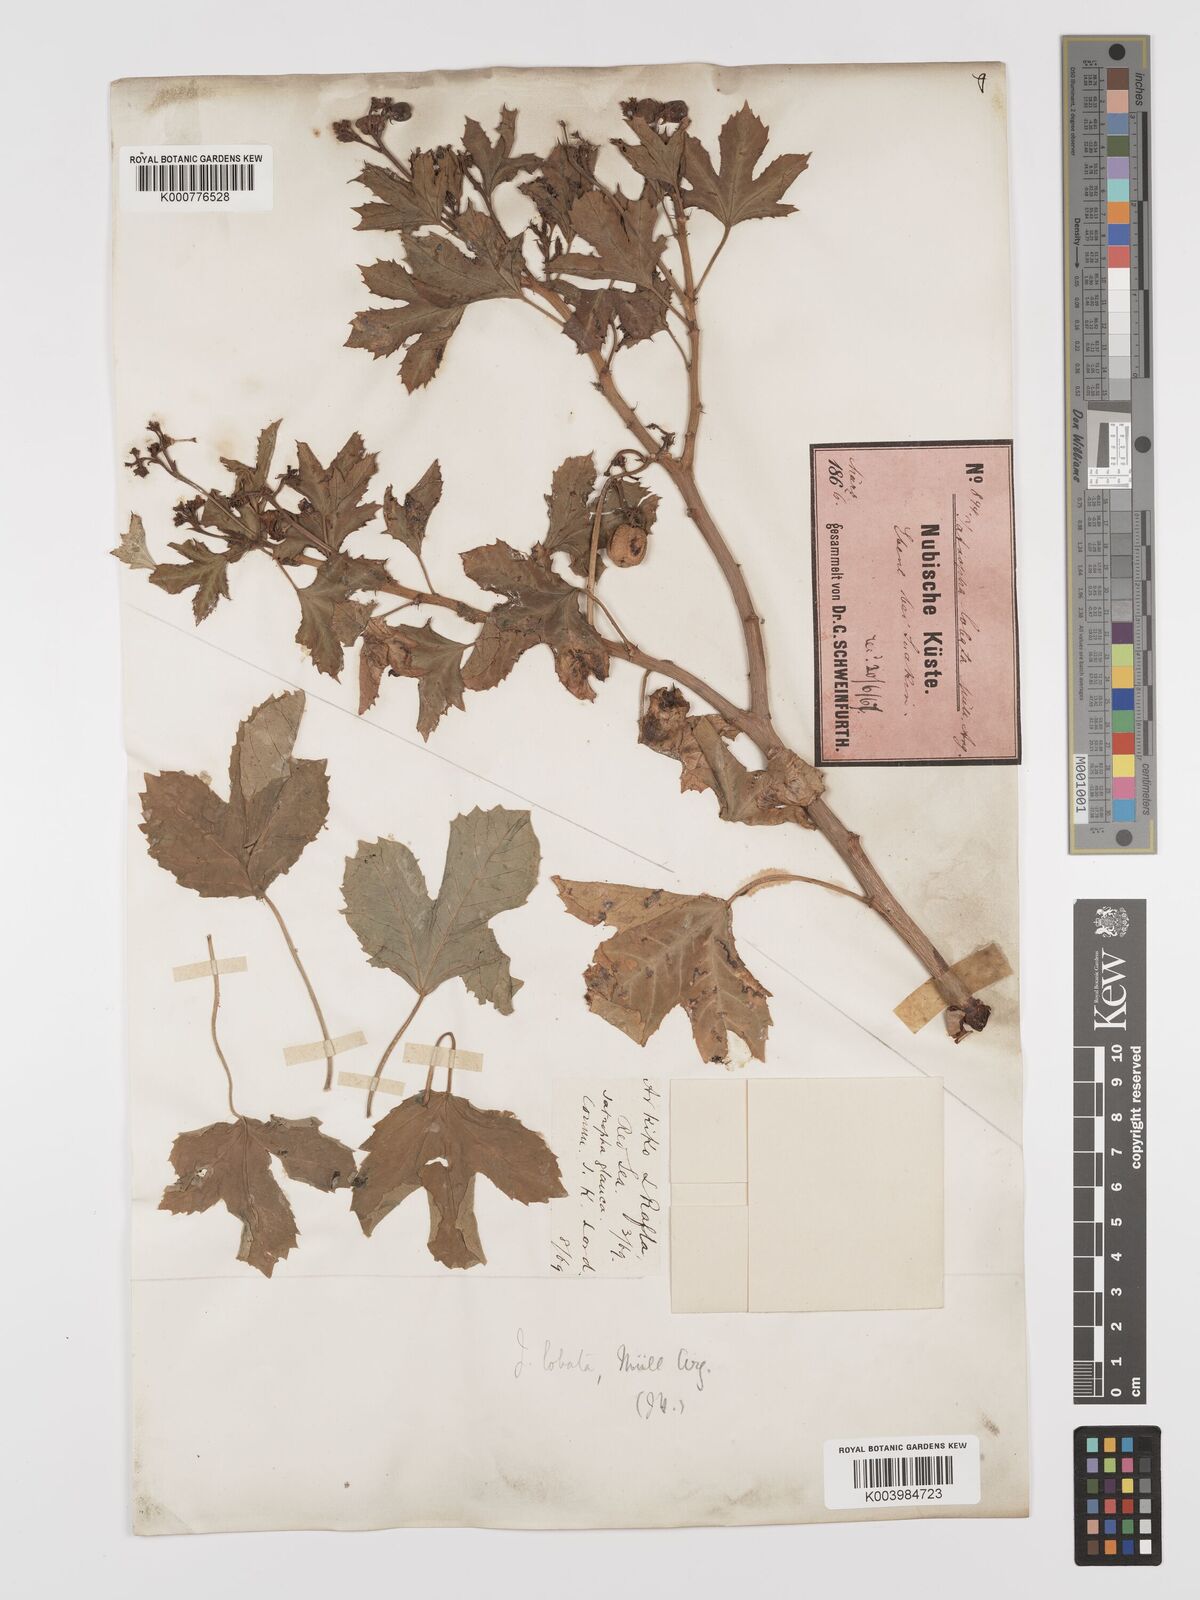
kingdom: Plantae
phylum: Tracheophyta
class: Magnoliopsida
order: Malpighiales
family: Euphorbiaceae
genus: Jatropha
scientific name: Jatropha glauca
